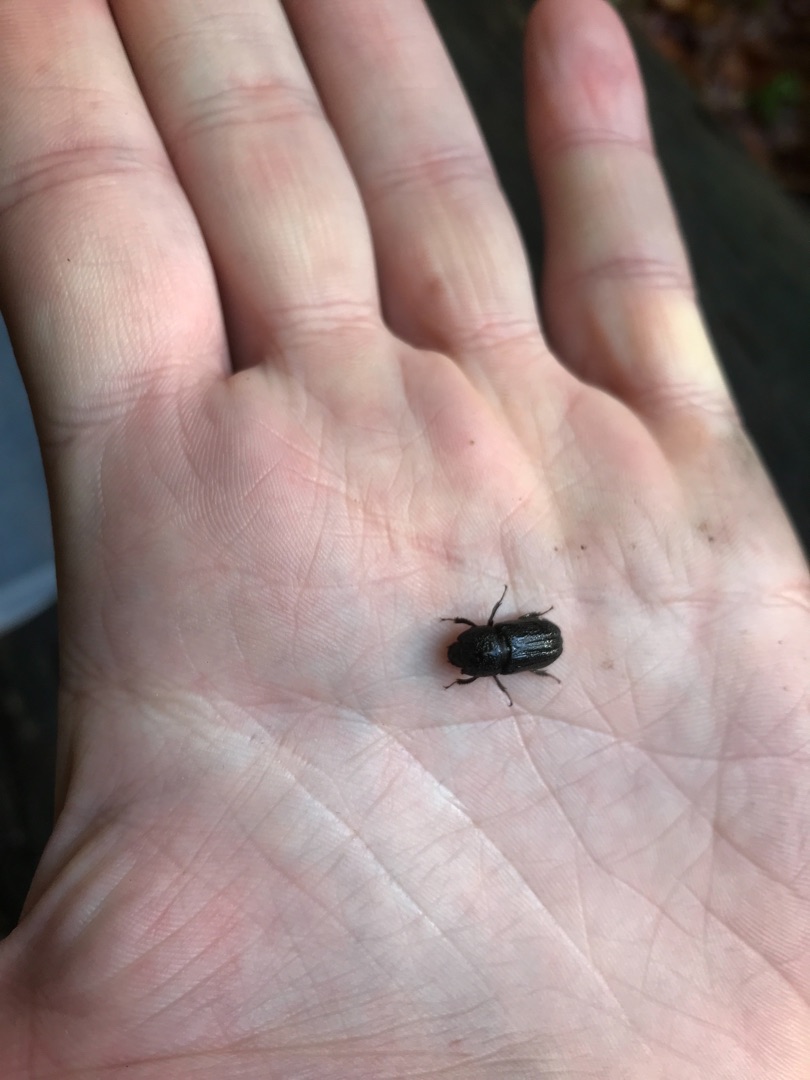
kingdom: Animalia
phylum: Arthropoda
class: Insecta
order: Coleoptera
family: Lucanidae
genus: Sinodendron
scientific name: Sinodendron cylindricum
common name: Valsehjort
